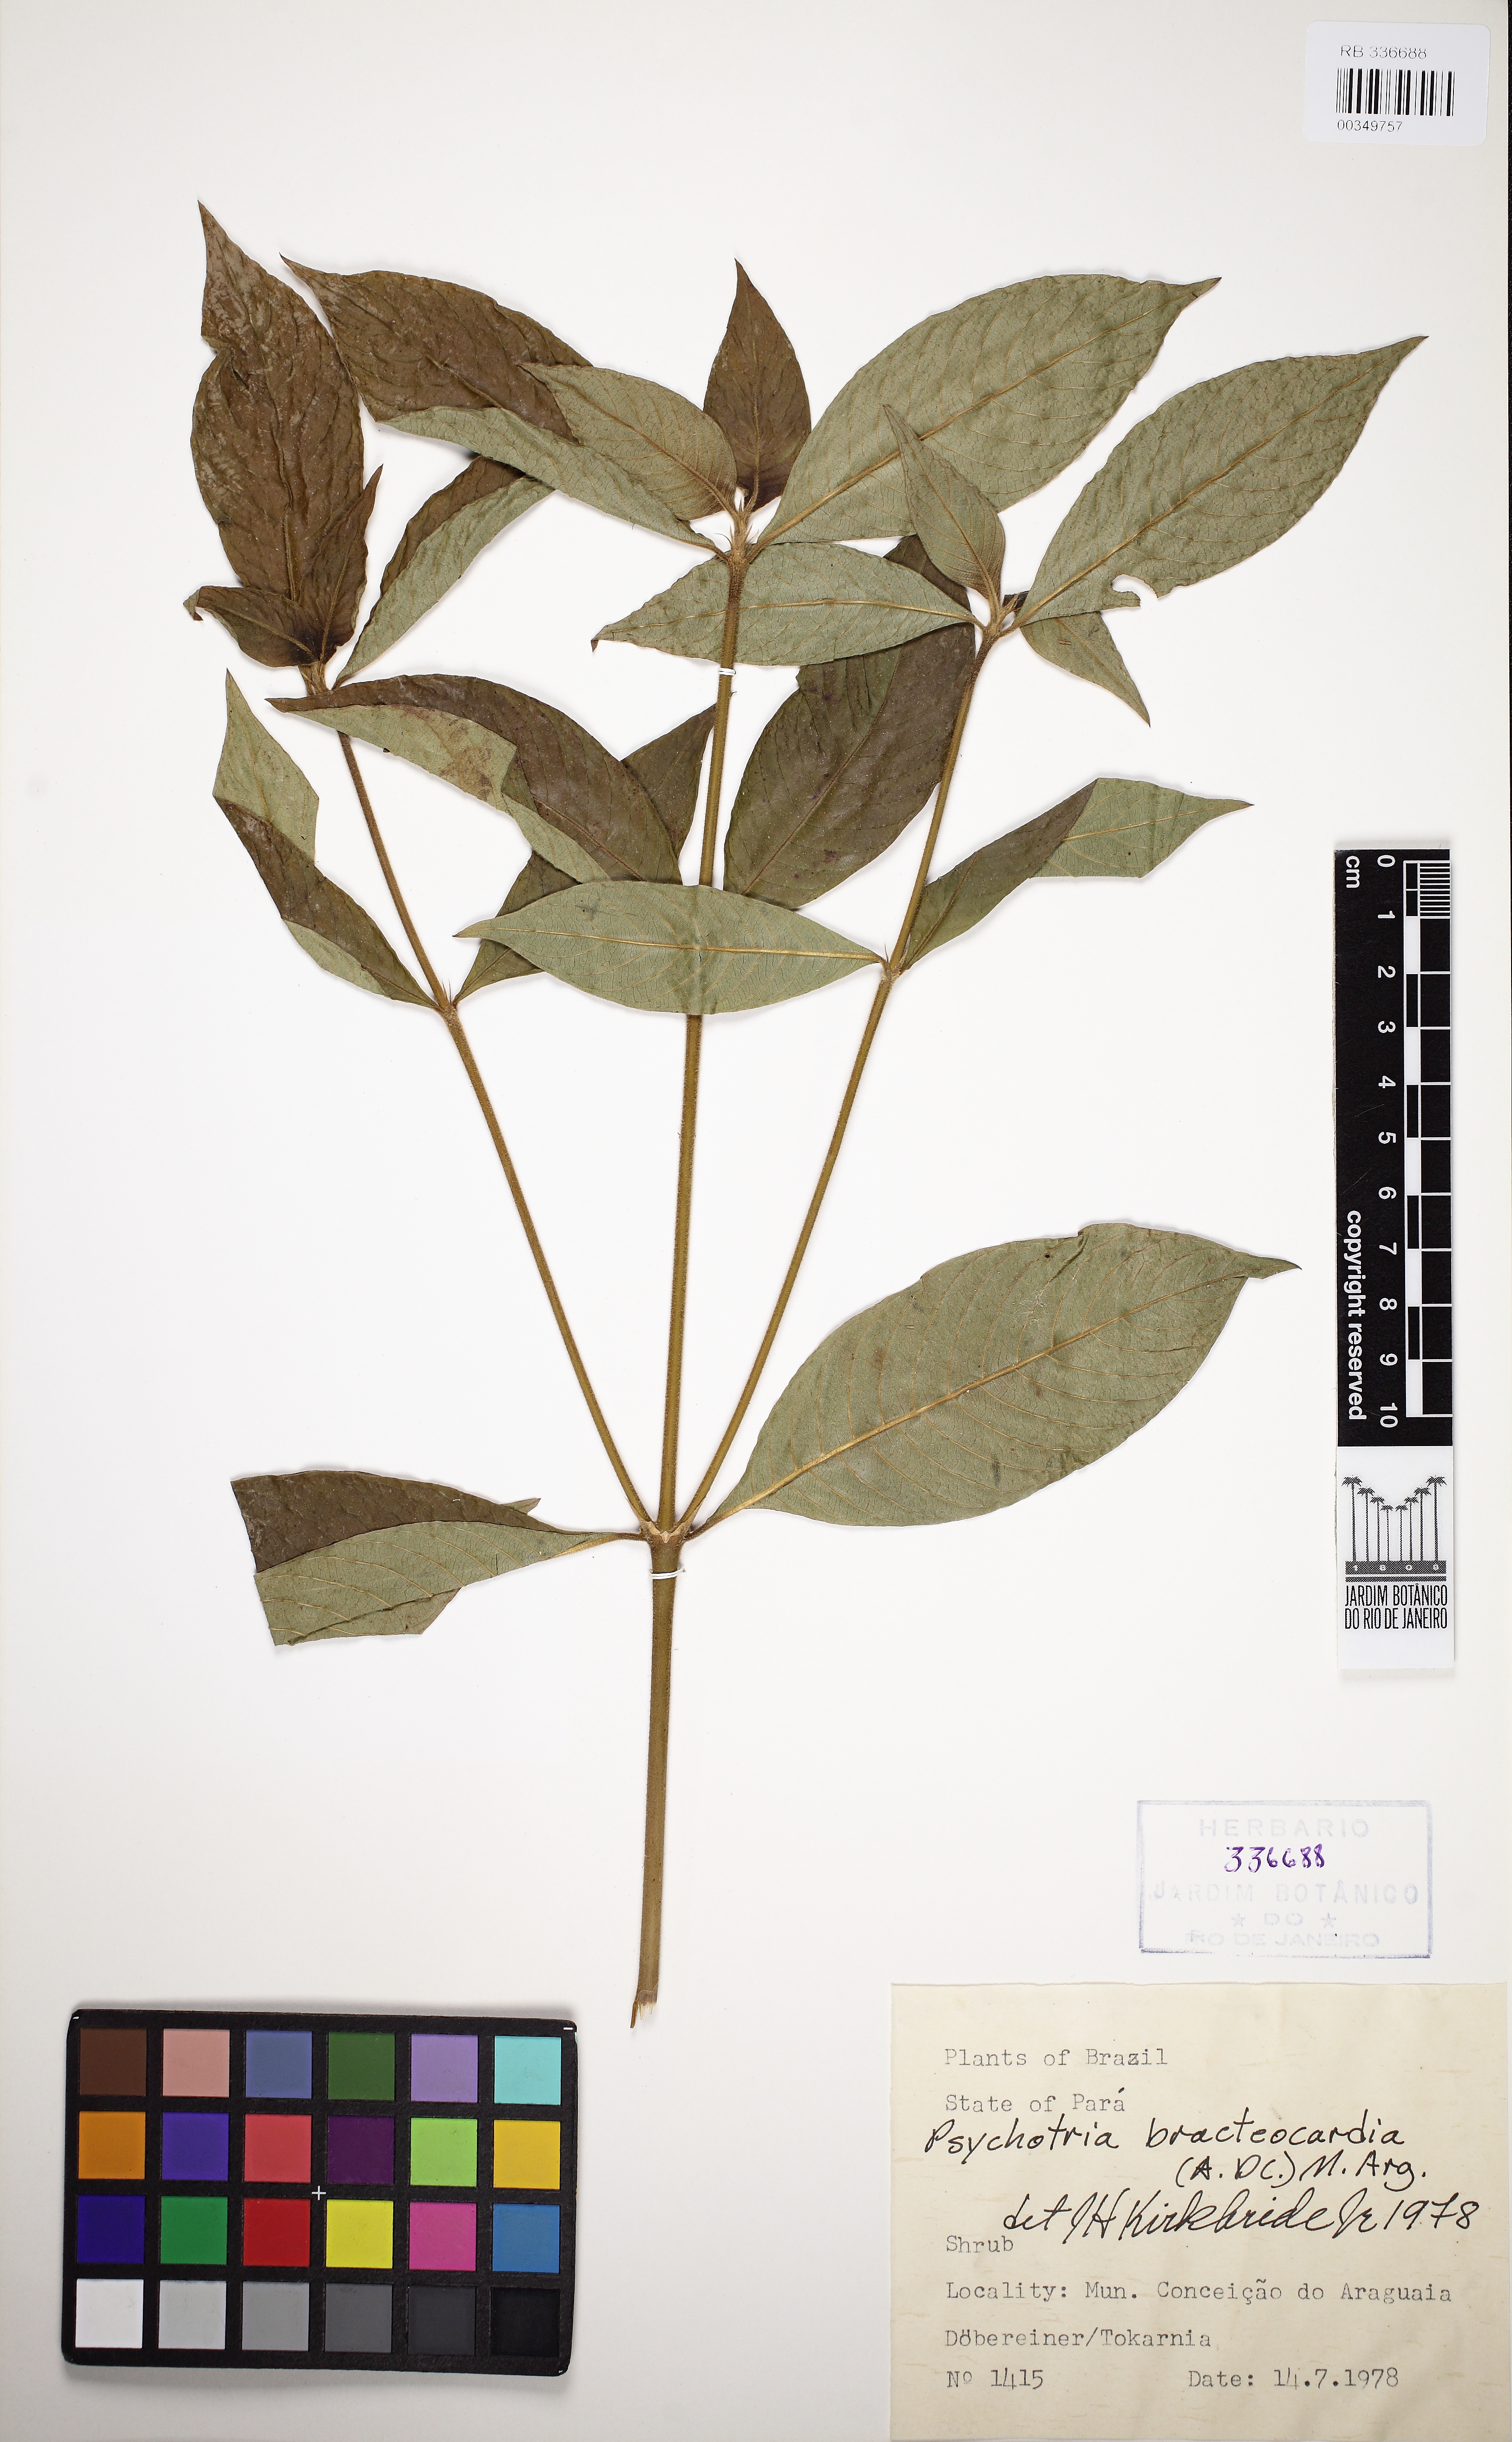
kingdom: Plantae
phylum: Tracheophyta
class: Magnoliopsida
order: Gentianales
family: Rubiaceae
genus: Palicourea
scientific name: Palicourea bracteocardia
